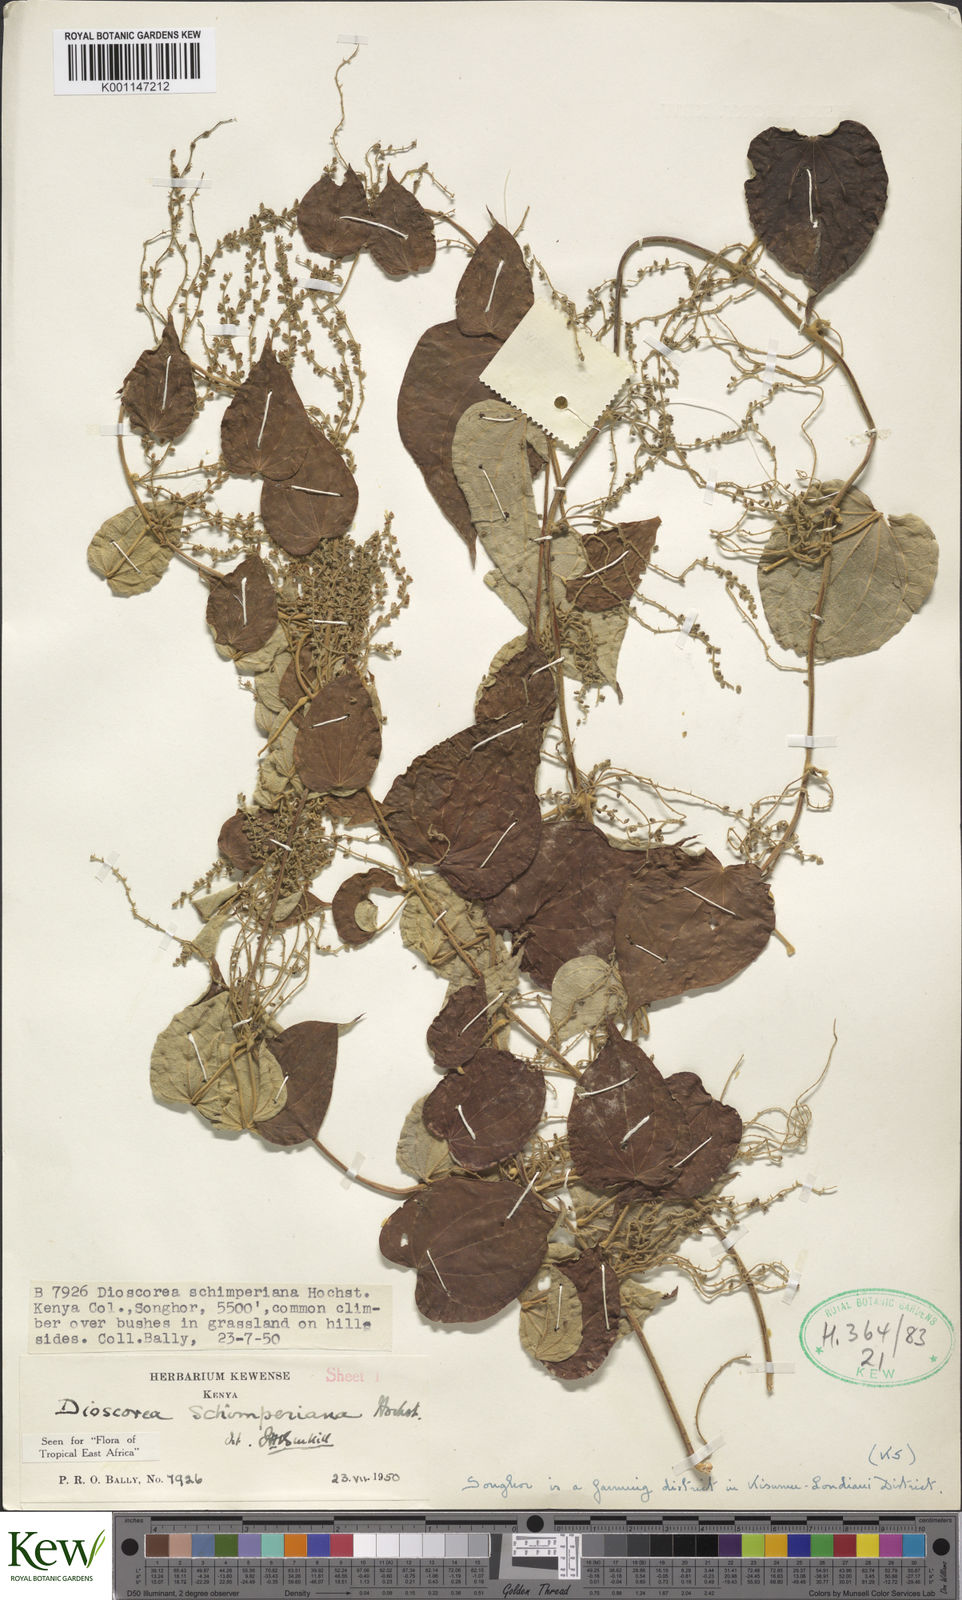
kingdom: Plantae
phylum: Tracheophyta
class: Liliopsida
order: Dioscoreales
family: Dioscoreaceae
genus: Dioscorea
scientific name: Dioscorea schimperiana
